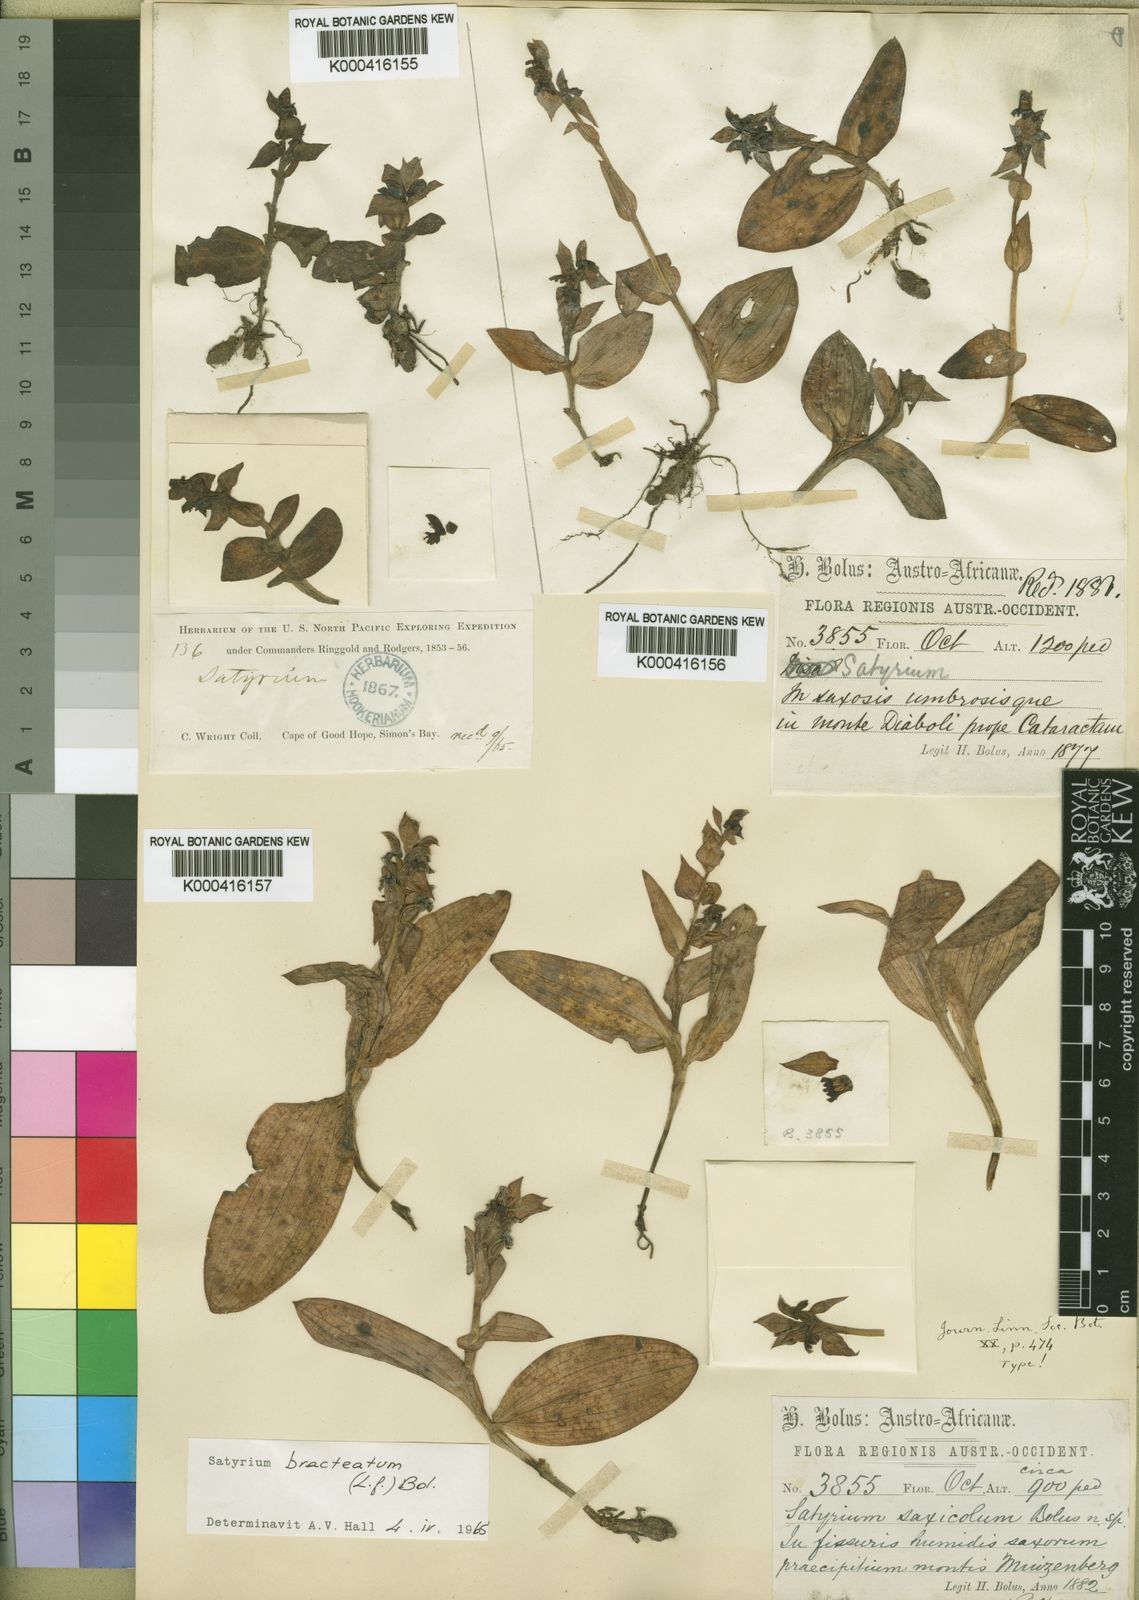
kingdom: Plantae
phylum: Tracheophyta
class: Liliopsida
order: Asparagales
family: Orchidaceae
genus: Satyrium
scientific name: Satyrium bracteatum
